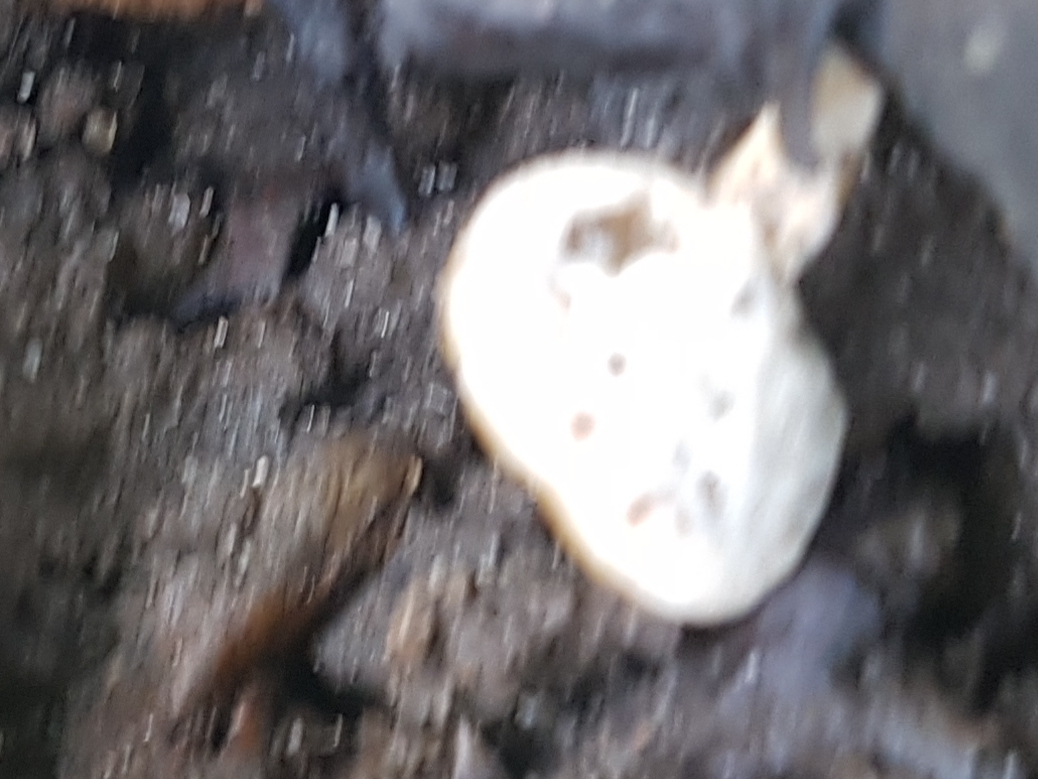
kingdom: Fungi
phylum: Basidiomycota
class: Agaricomycetes
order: Polyporales
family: Polyporaceae
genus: Cerioporus
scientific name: Cerioporus varius
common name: foranderlig stilkporesvamp
